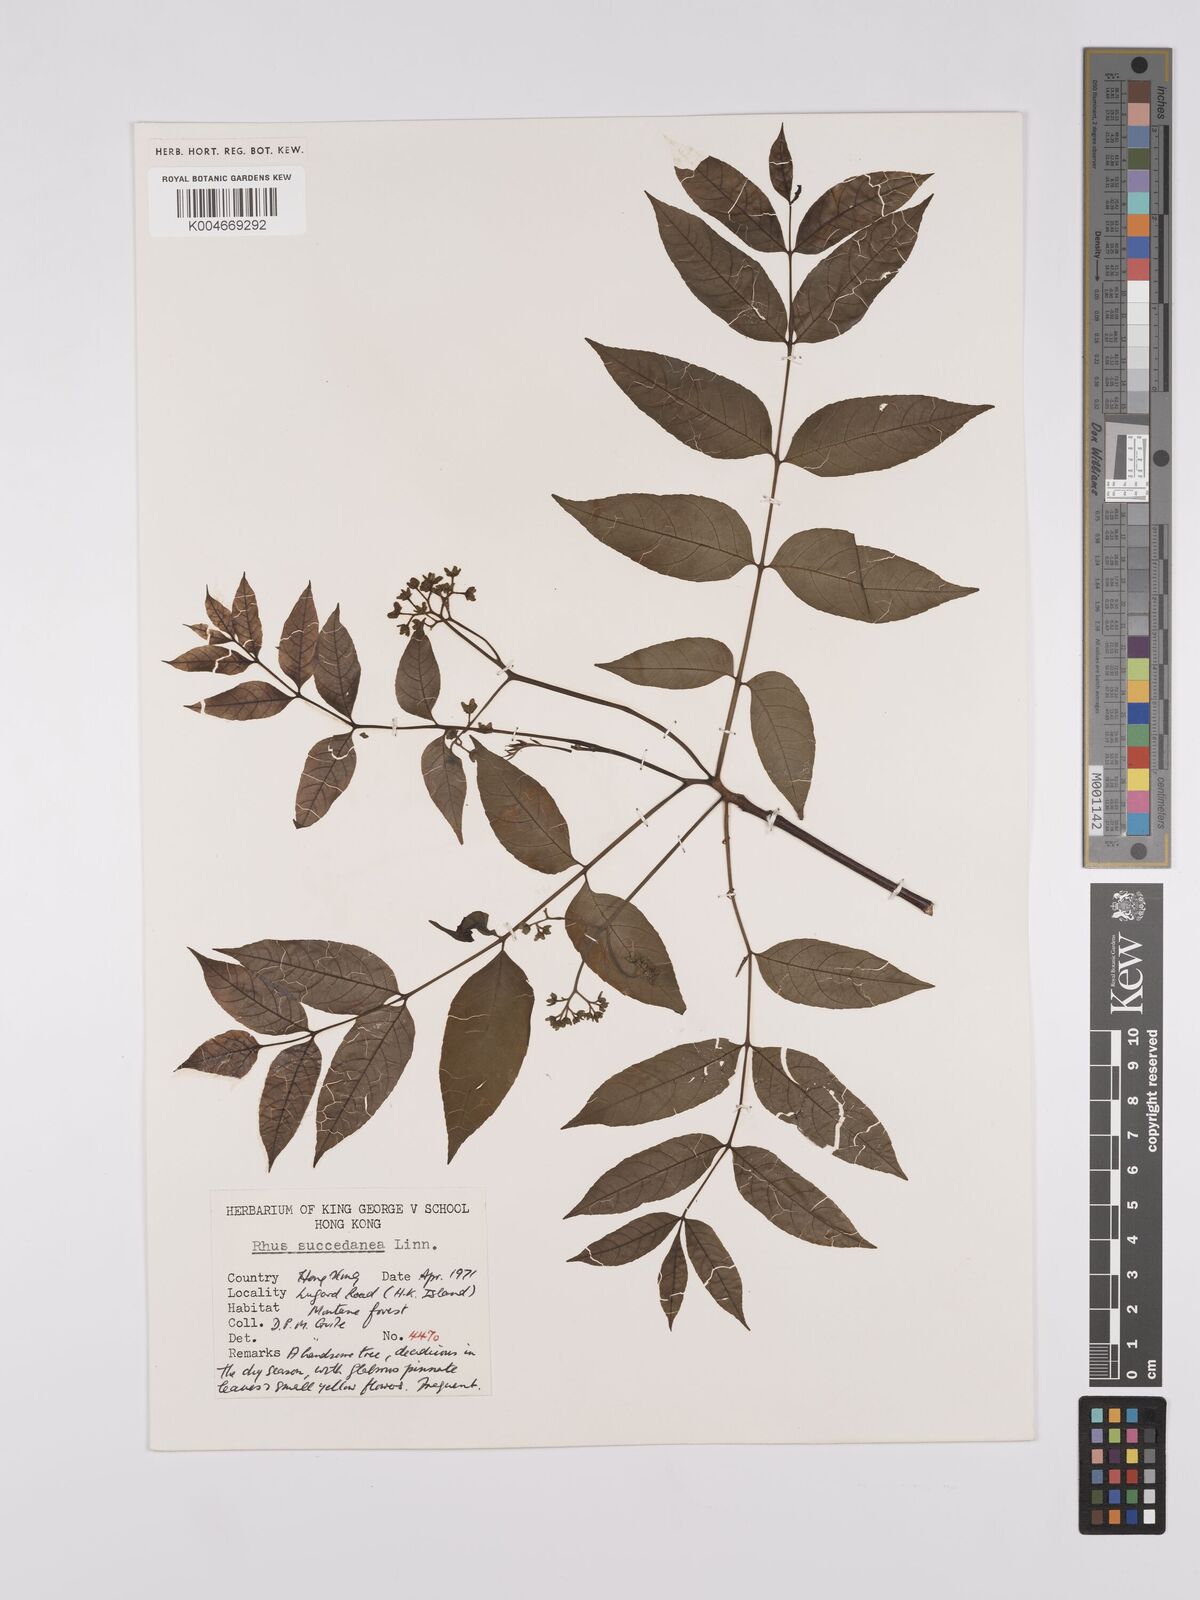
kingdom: Plantae
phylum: Tracheophyta
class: Magnoliopsida
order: Sapindales
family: Anacardiaceae
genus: Toxicodendron
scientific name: Toxicodendron succedaneum
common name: Wax tree
